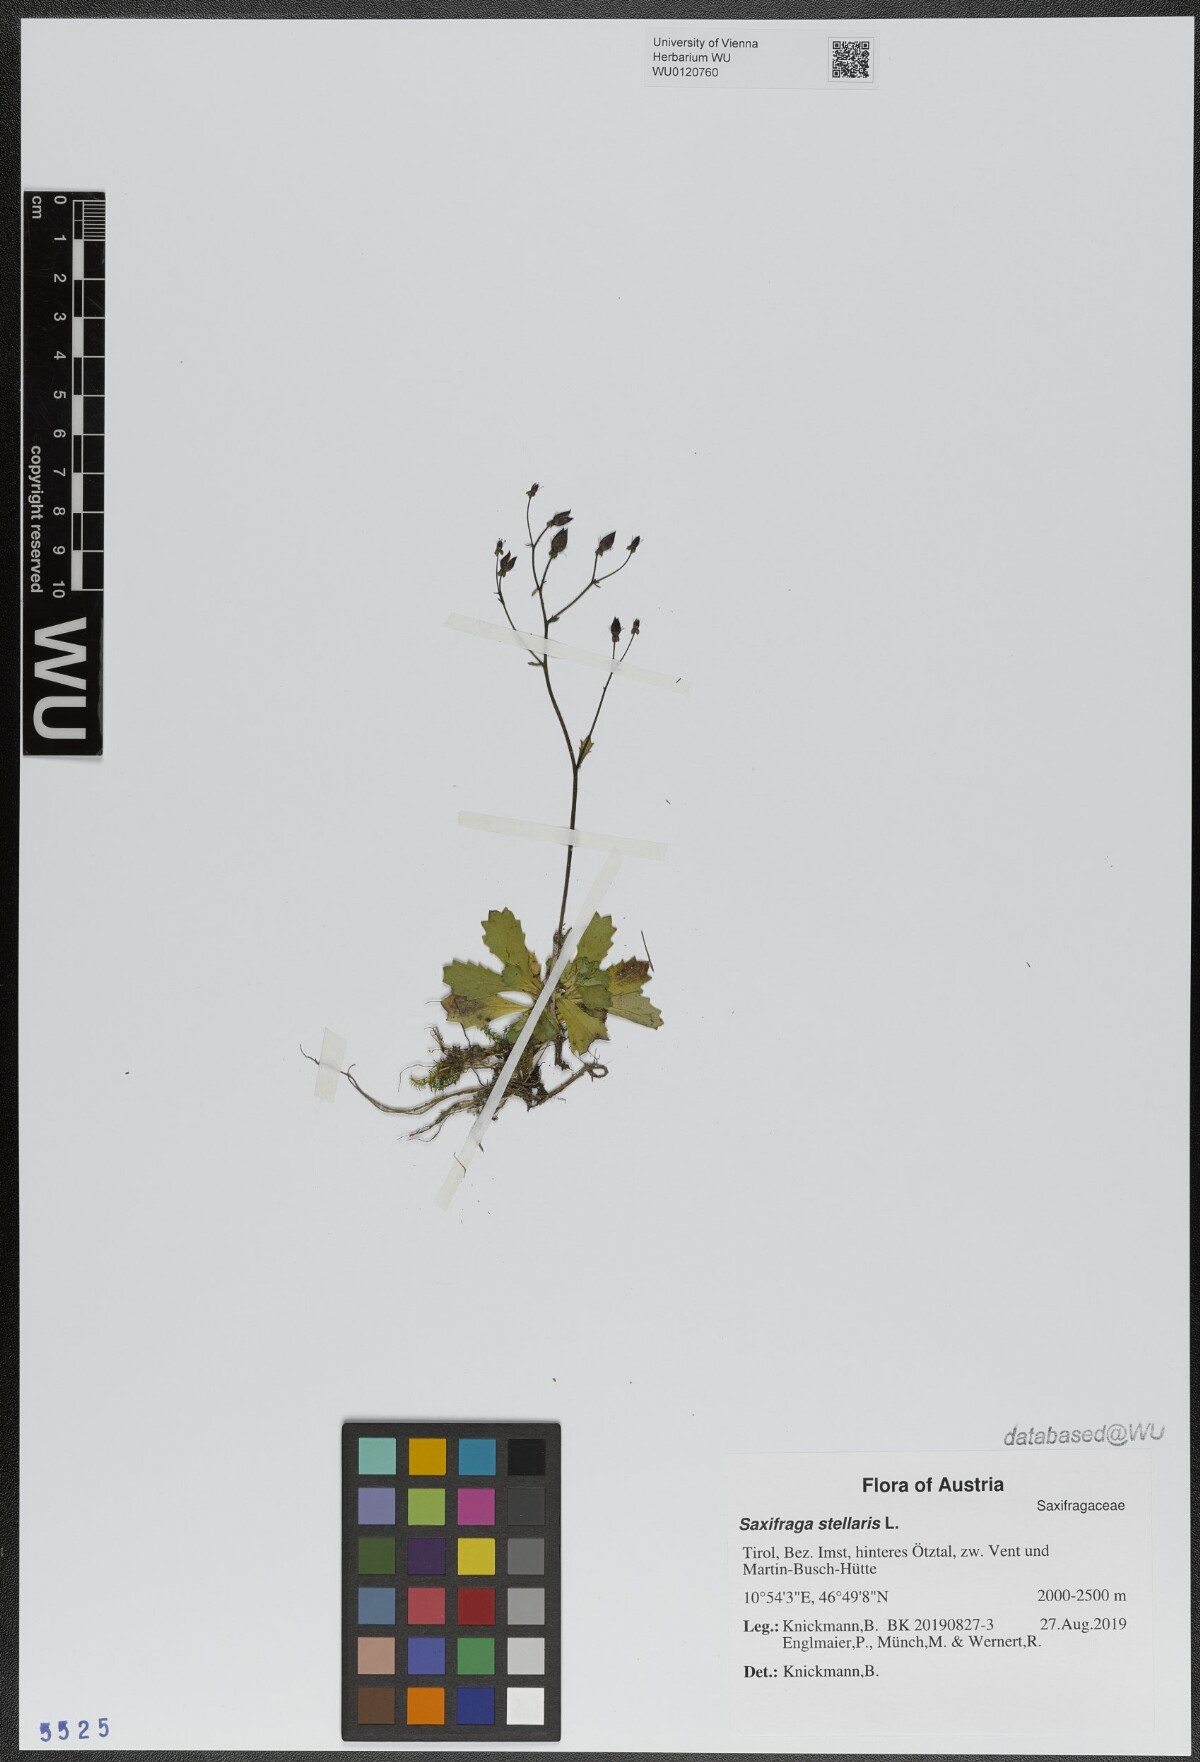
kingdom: Plantae
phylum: Tracheophyta
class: Magnoliopsida
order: Saxifragales
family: Saxifragaceae
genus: Micranthes
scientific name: Micranthes stellaris
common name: Starry saxifrage
